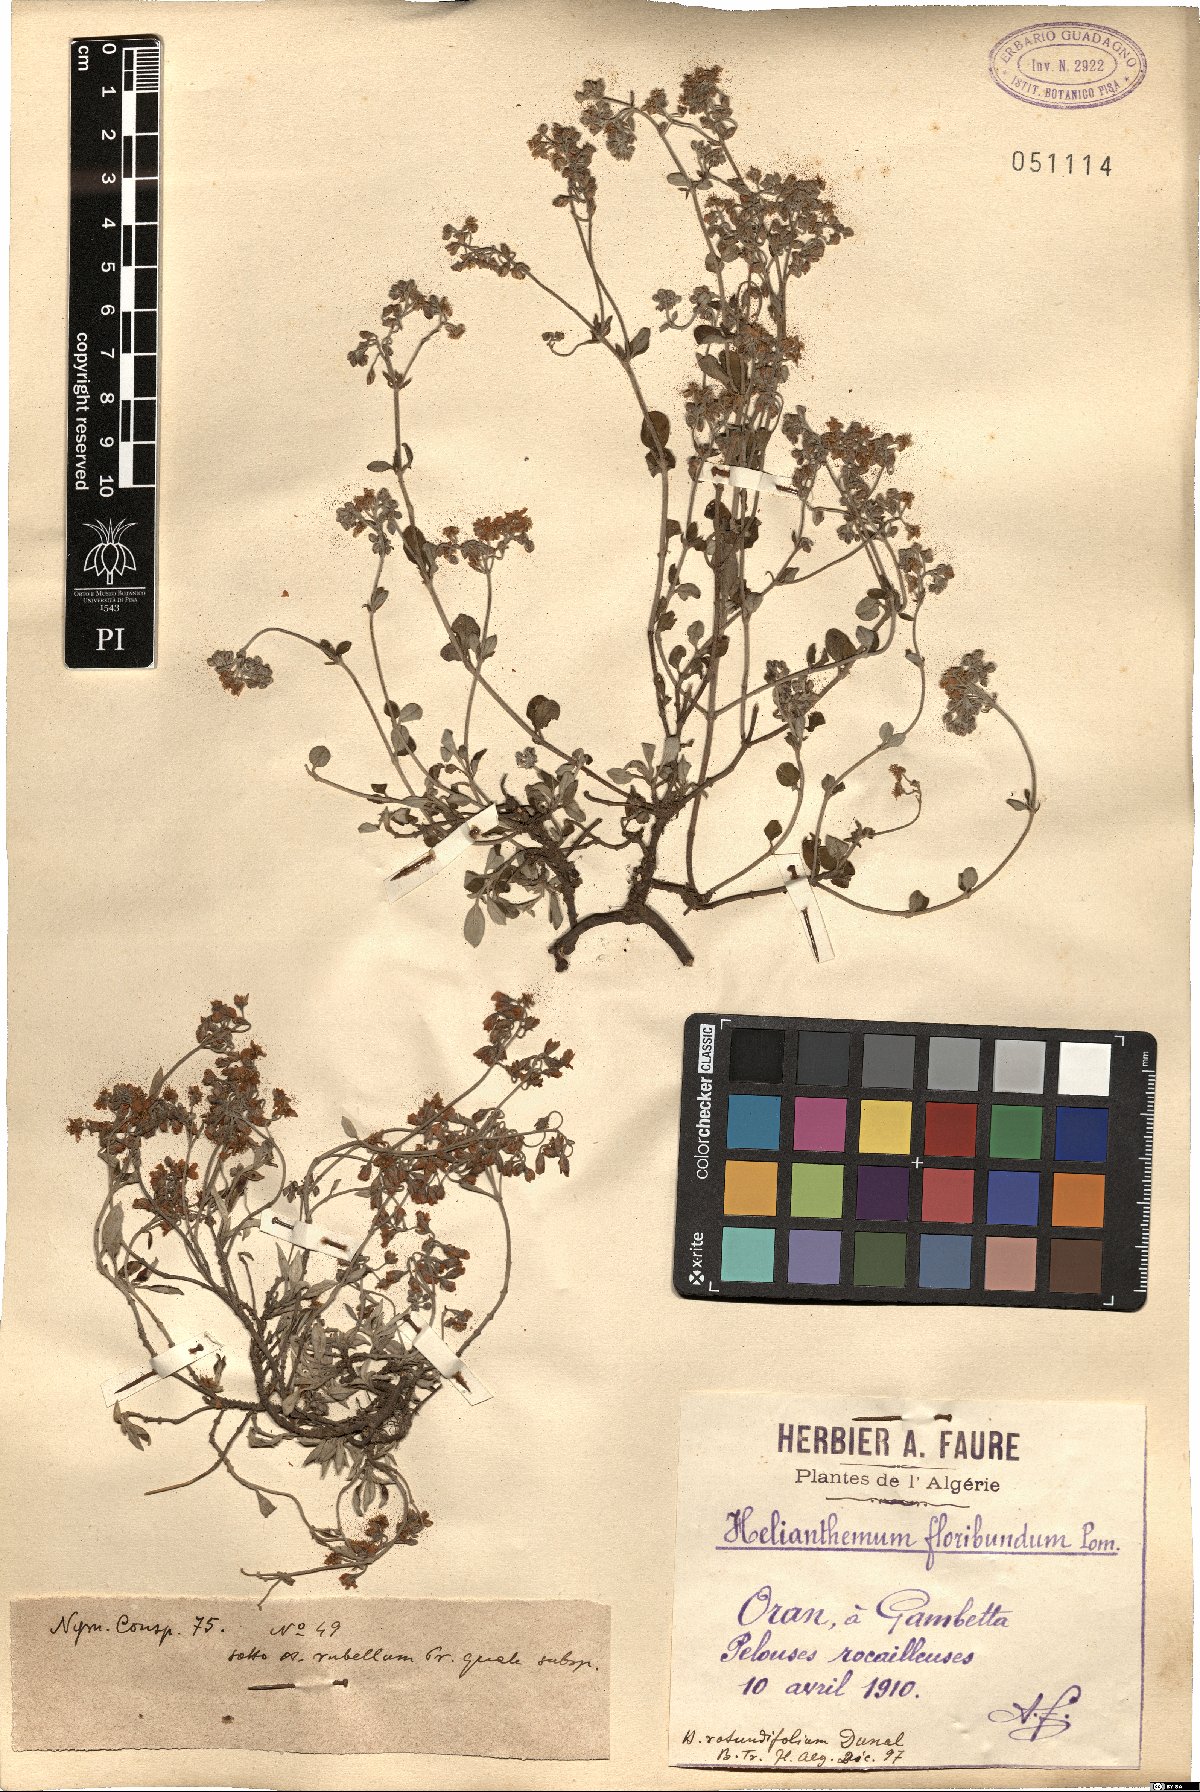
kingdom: Plantae
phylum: Tracheophyta
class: Magnoliopsida
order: Malvales
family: Cistaceae
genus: Helianthemum
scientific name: Helianthemum cinereum
